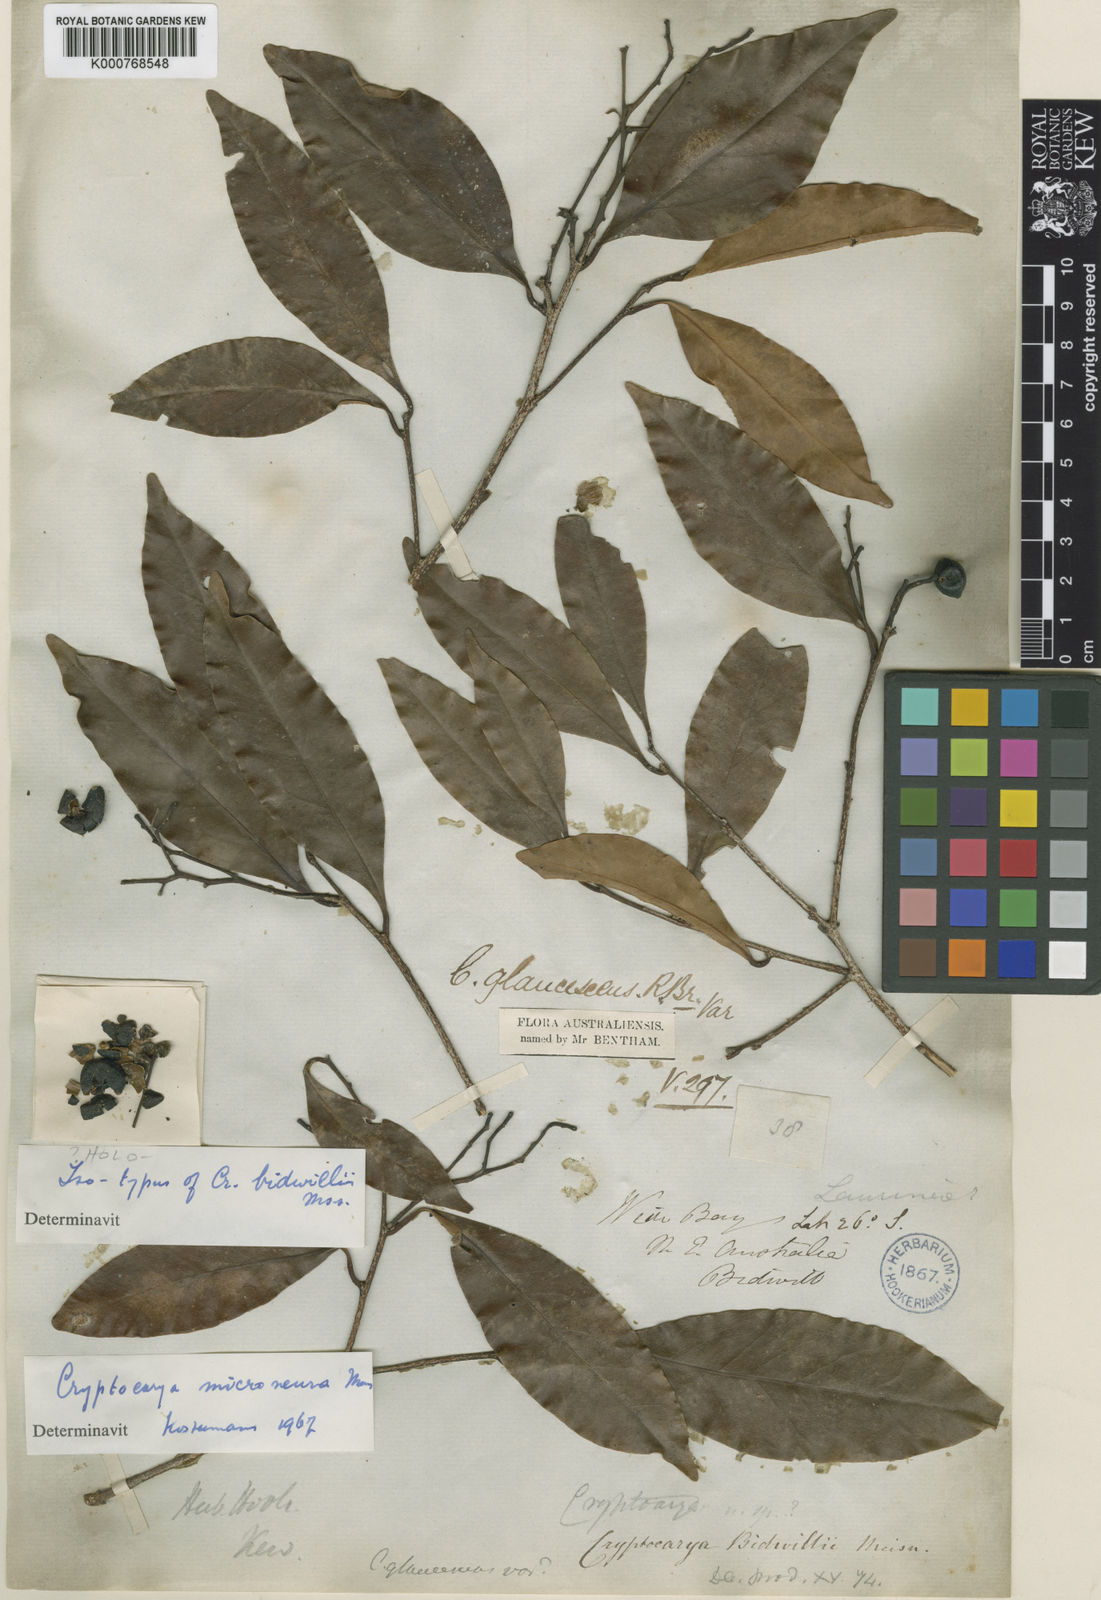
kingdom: Plantae
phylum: Tracheophyta
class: Magnoliopsida
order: Laurales
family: Lauraceae
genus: Cryptocarya
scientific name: Cryptocarya bidwillii
